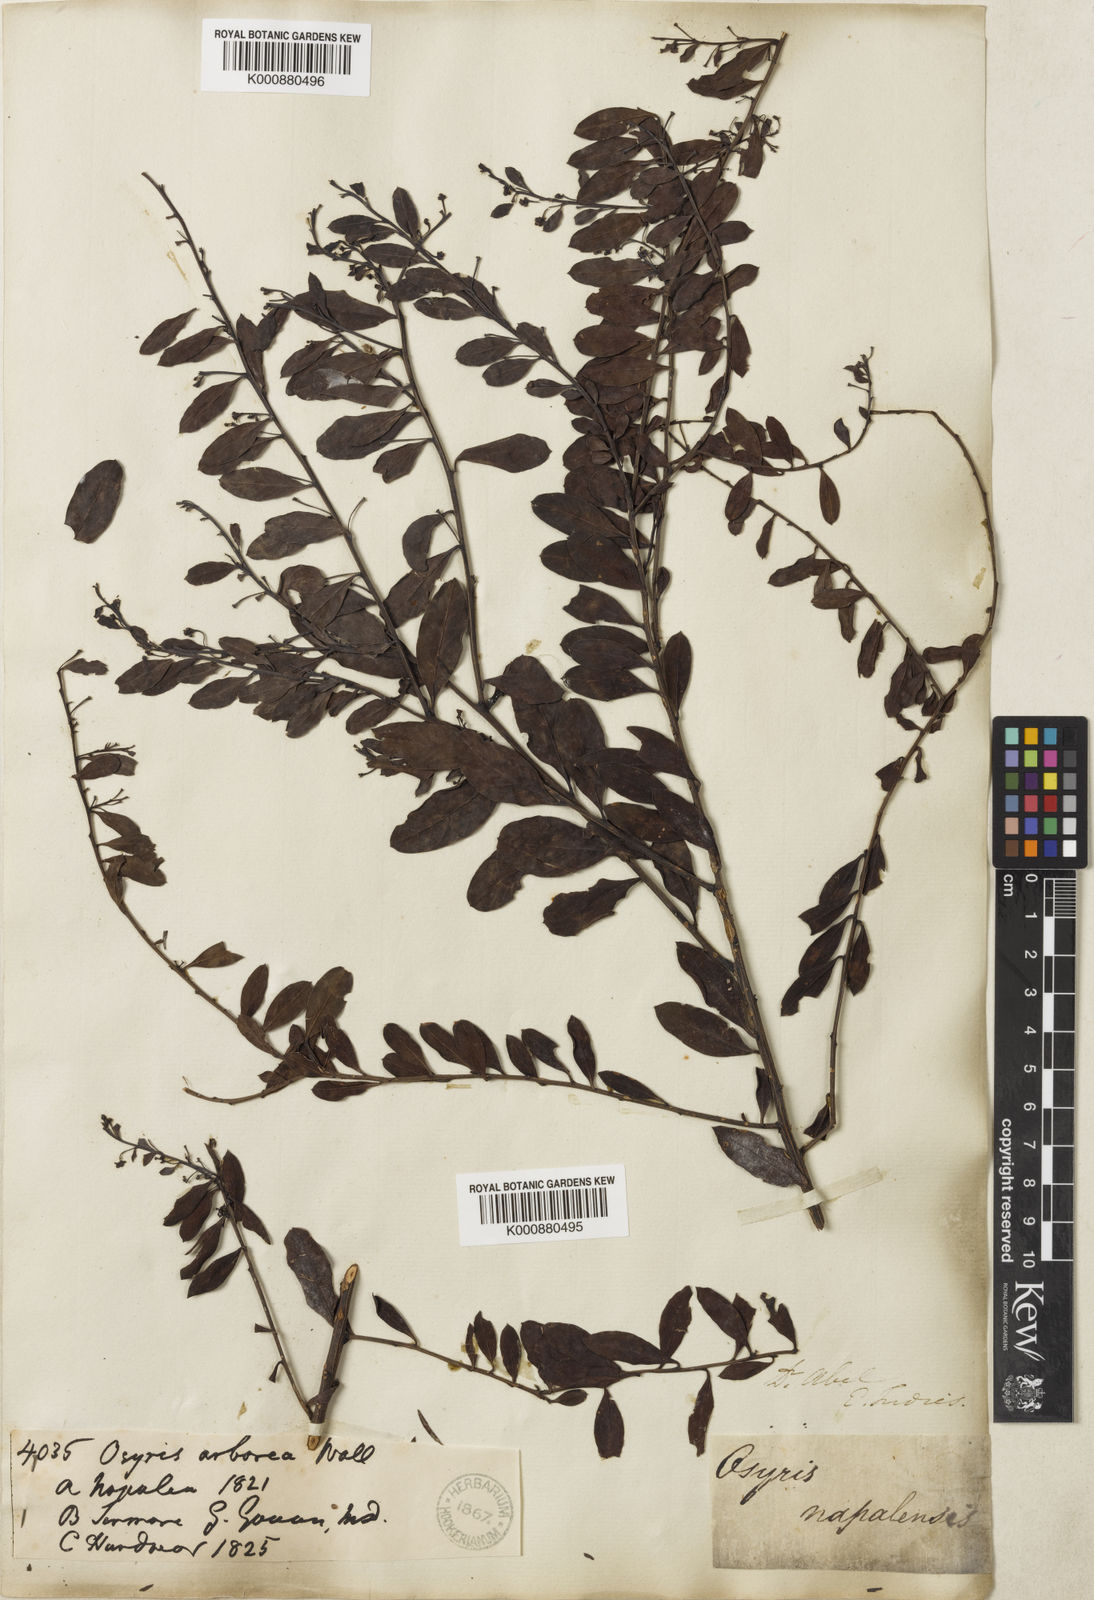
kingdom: Plantae
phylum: Tracheophyta
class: Magnoliopsida
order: Santalales
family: Santalaceae
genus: Osyris
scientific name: Osyris
